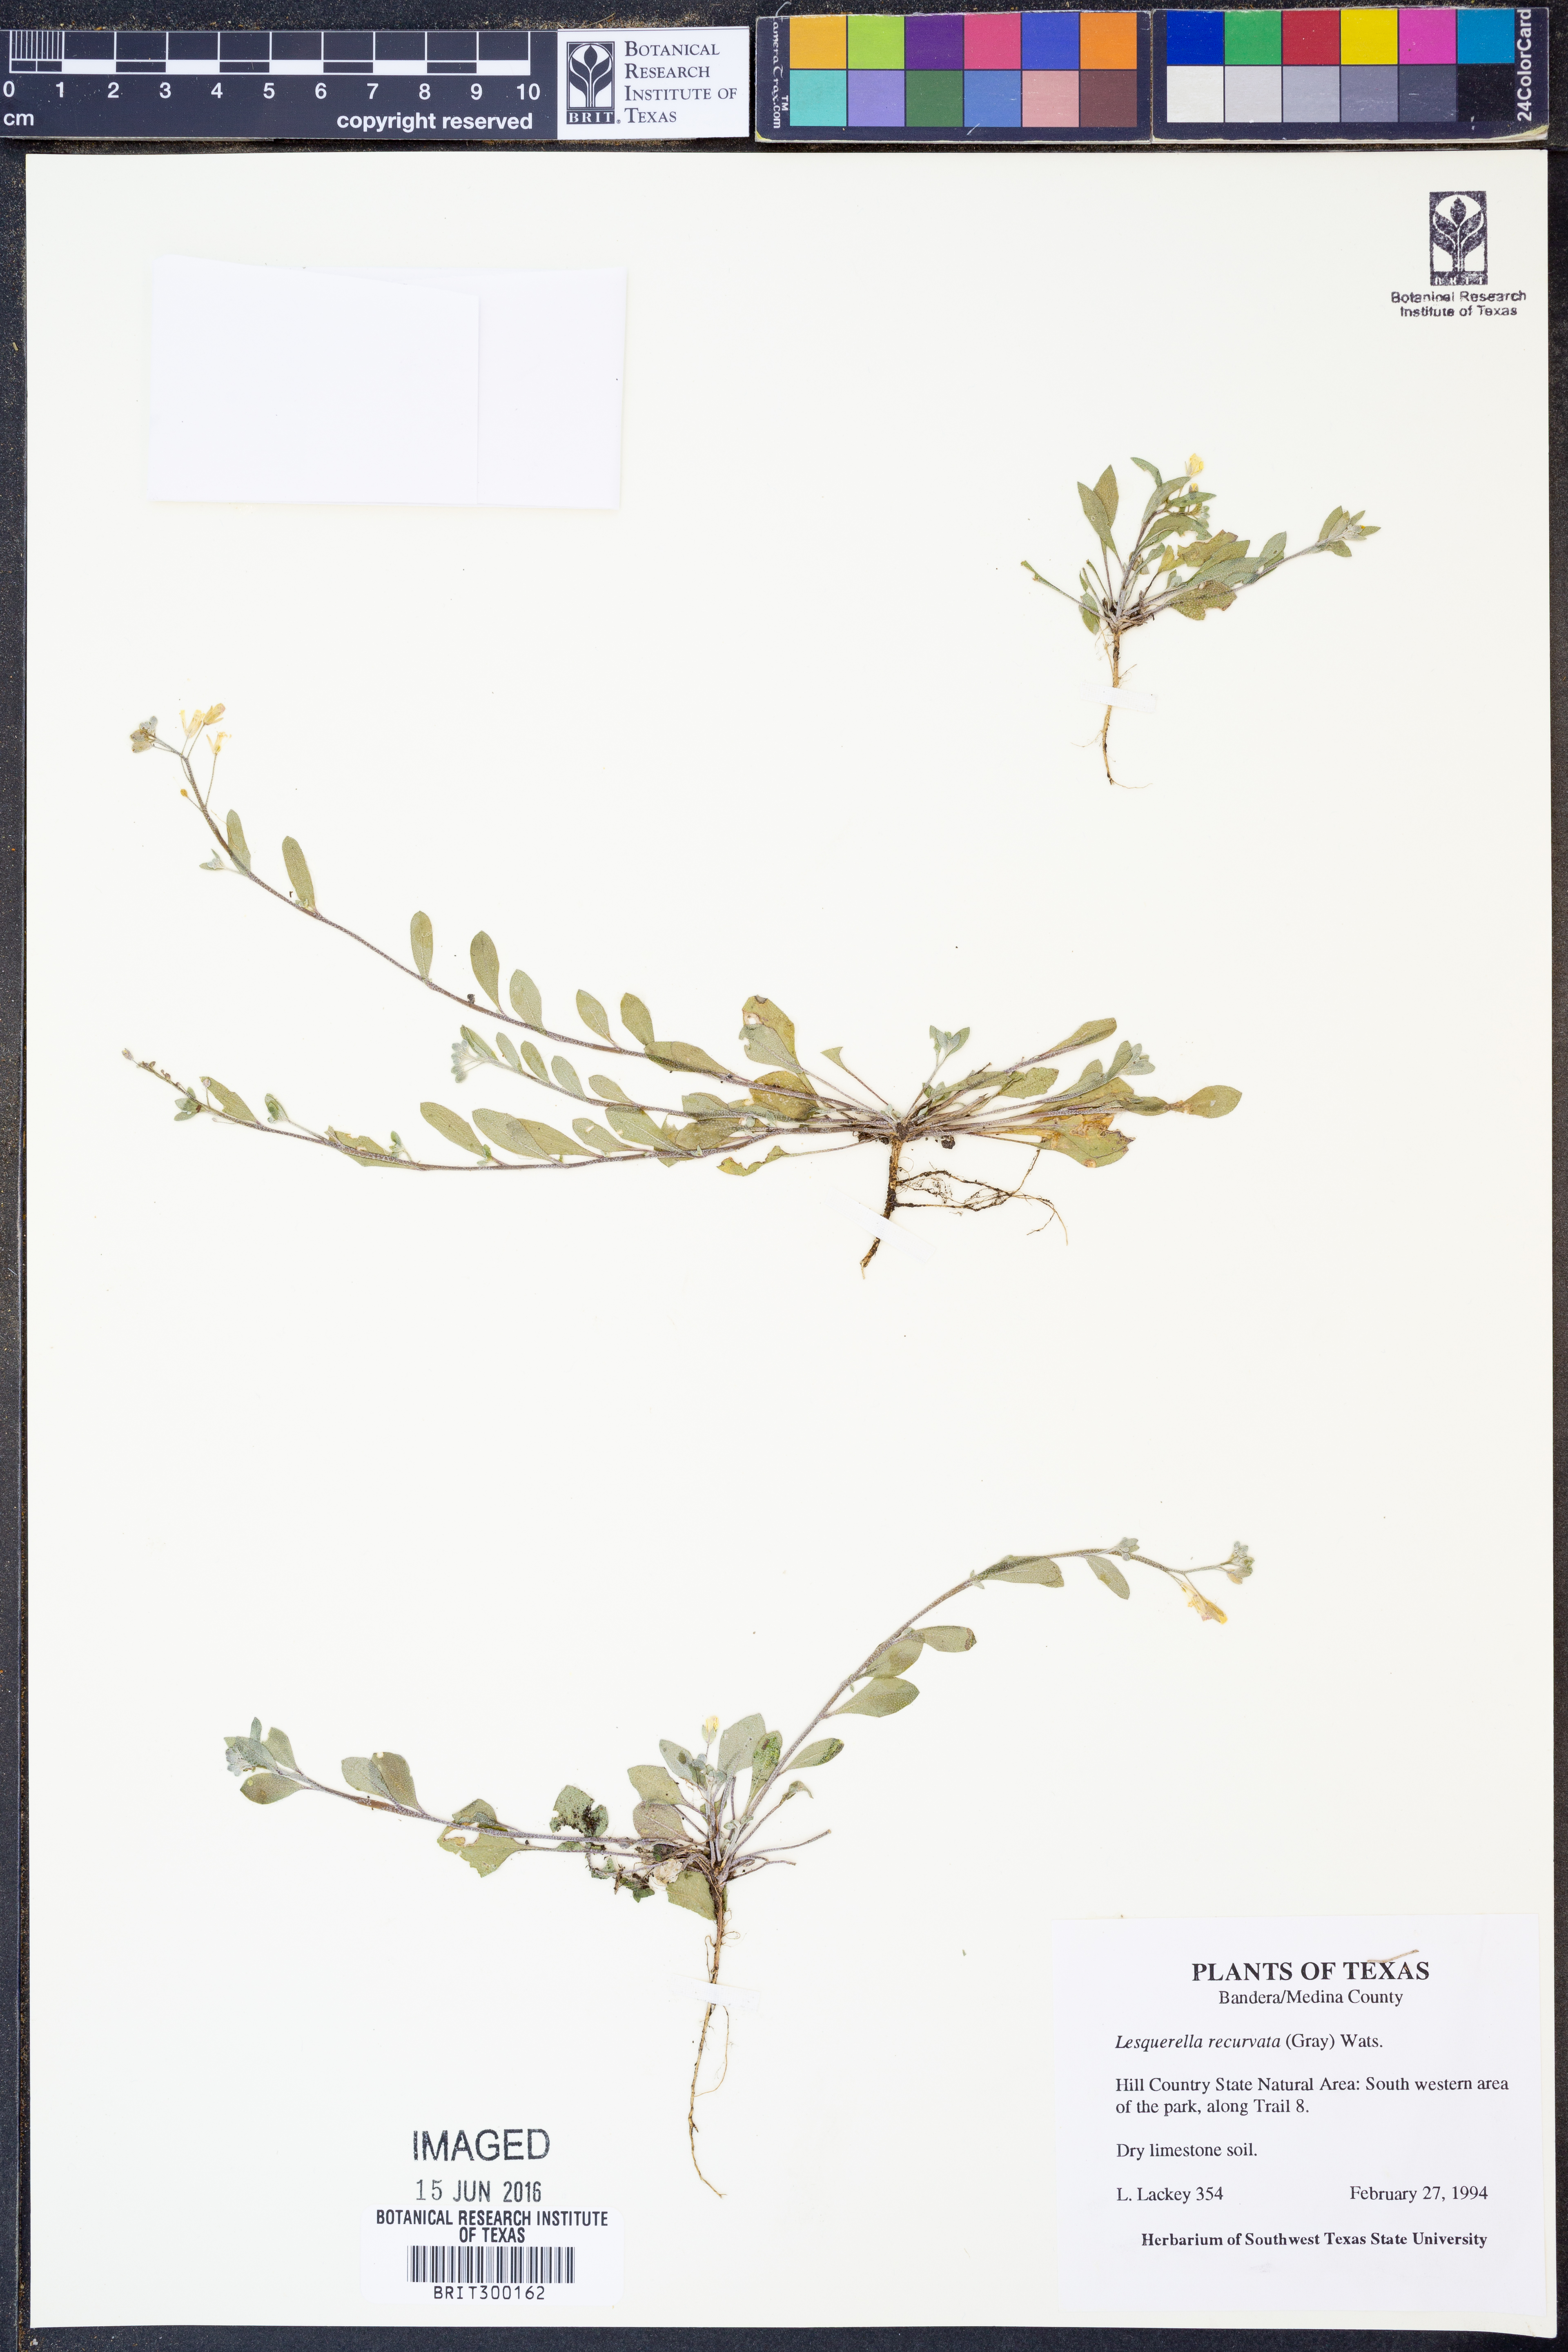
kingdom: Plantae
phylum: Tracheophyta
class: Magnoliopsida
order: Brassicales
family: Brassicaceae
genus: Physaria
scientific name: Physaria recurvata
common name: Gaslight bladderpod
